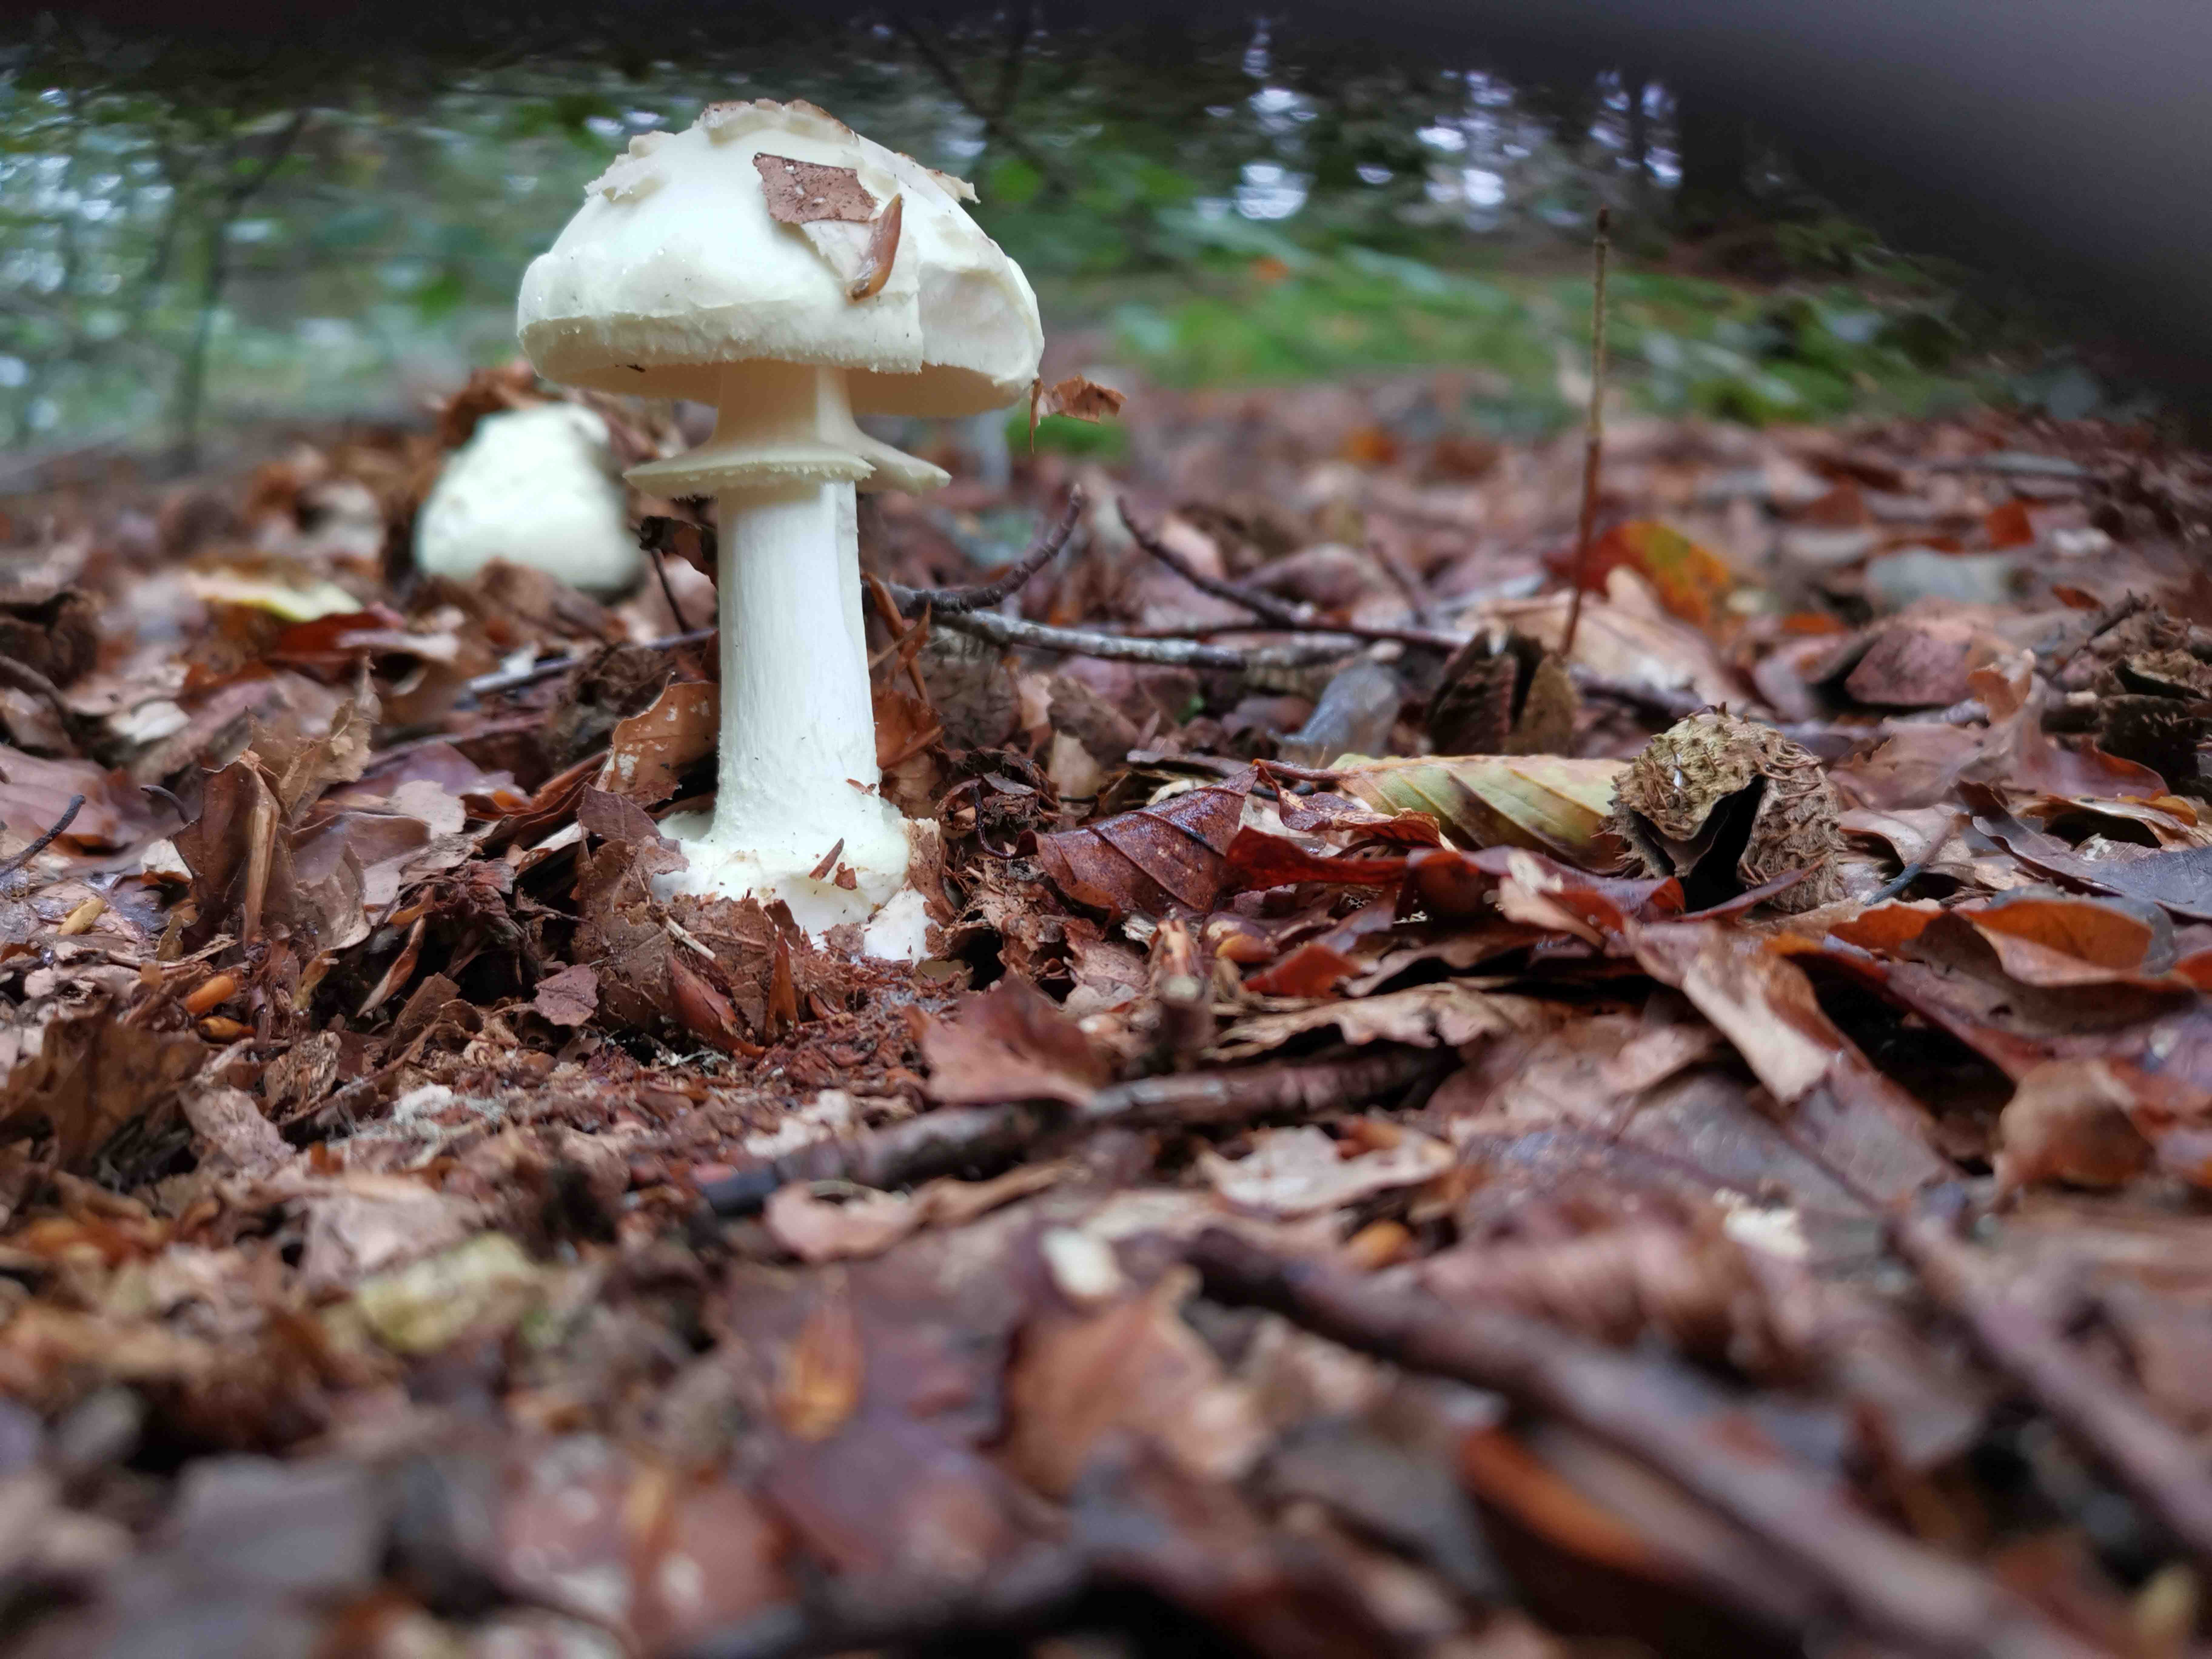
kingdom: Fungi
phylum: Basidiomycota
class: Agaricomycetes
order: Agaricales
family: Amanitaceae
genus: Amanita
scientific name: Amanita citrina
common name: kugleknoldet fluesvamp
